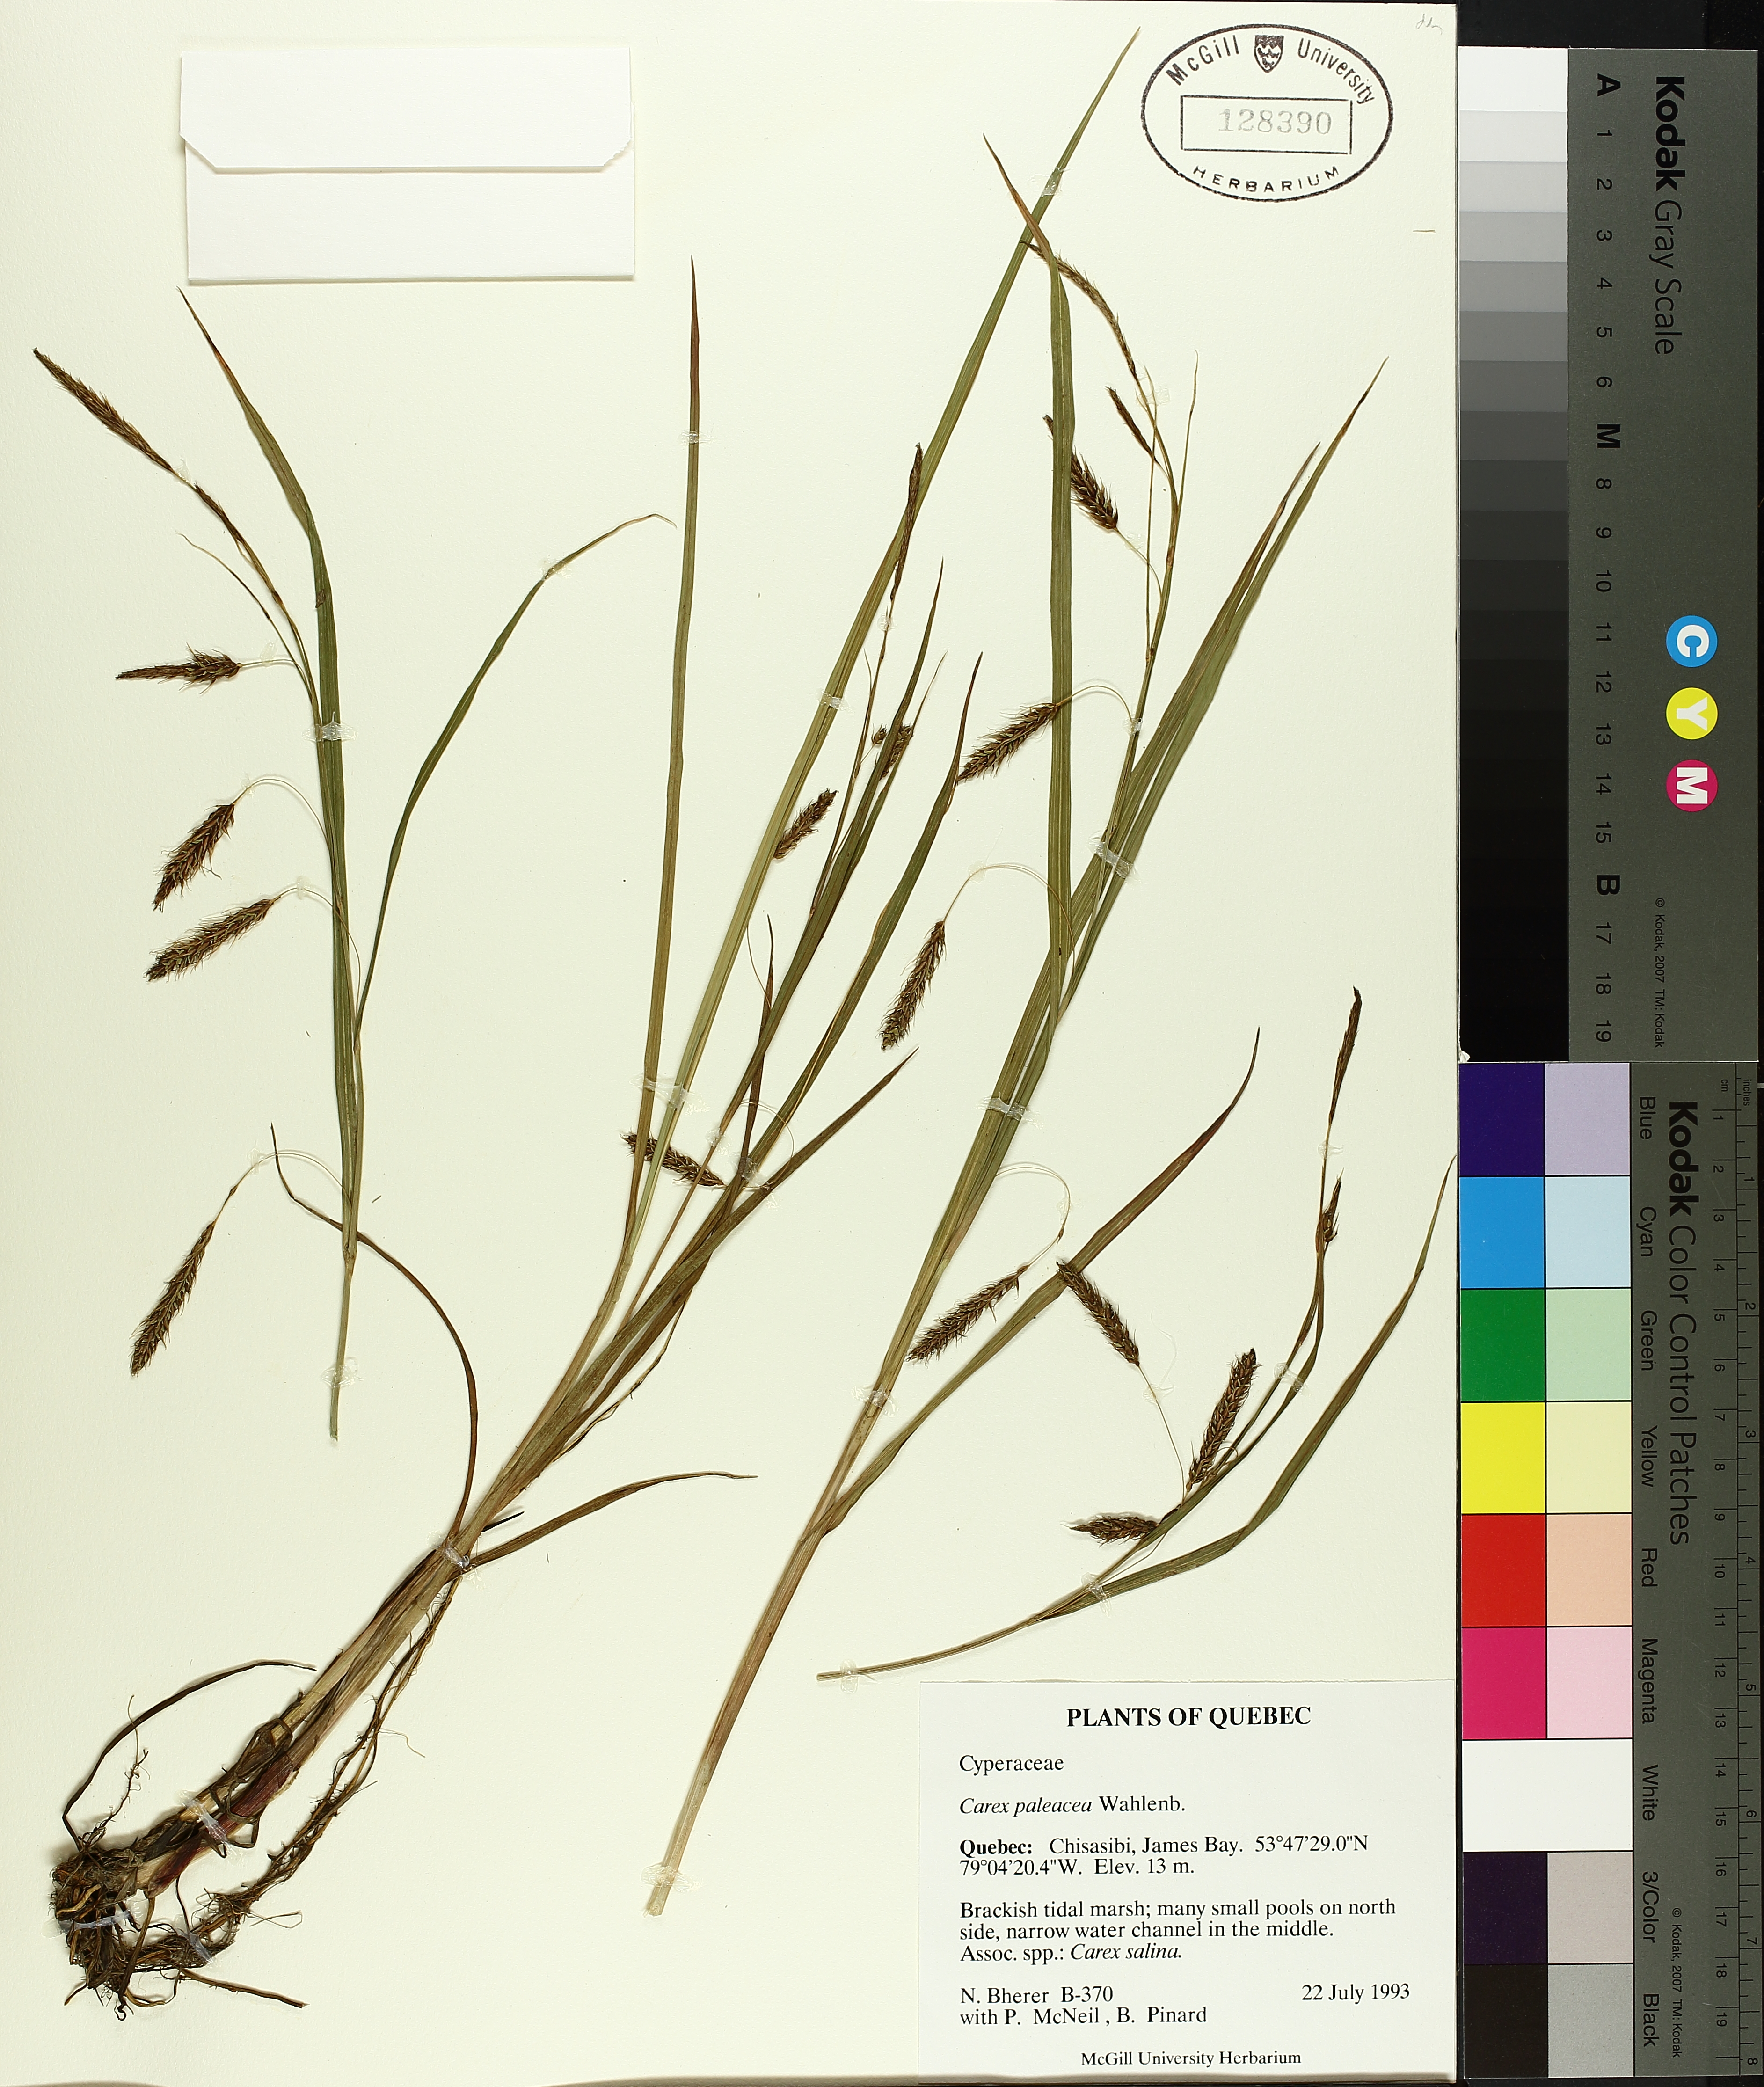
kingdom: Plantae
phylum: Tracheophyta
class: Liliopsida
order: Poales
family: Cyperaceae
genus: Carex
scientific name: Carex paleacea
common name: Chaffy sedge
